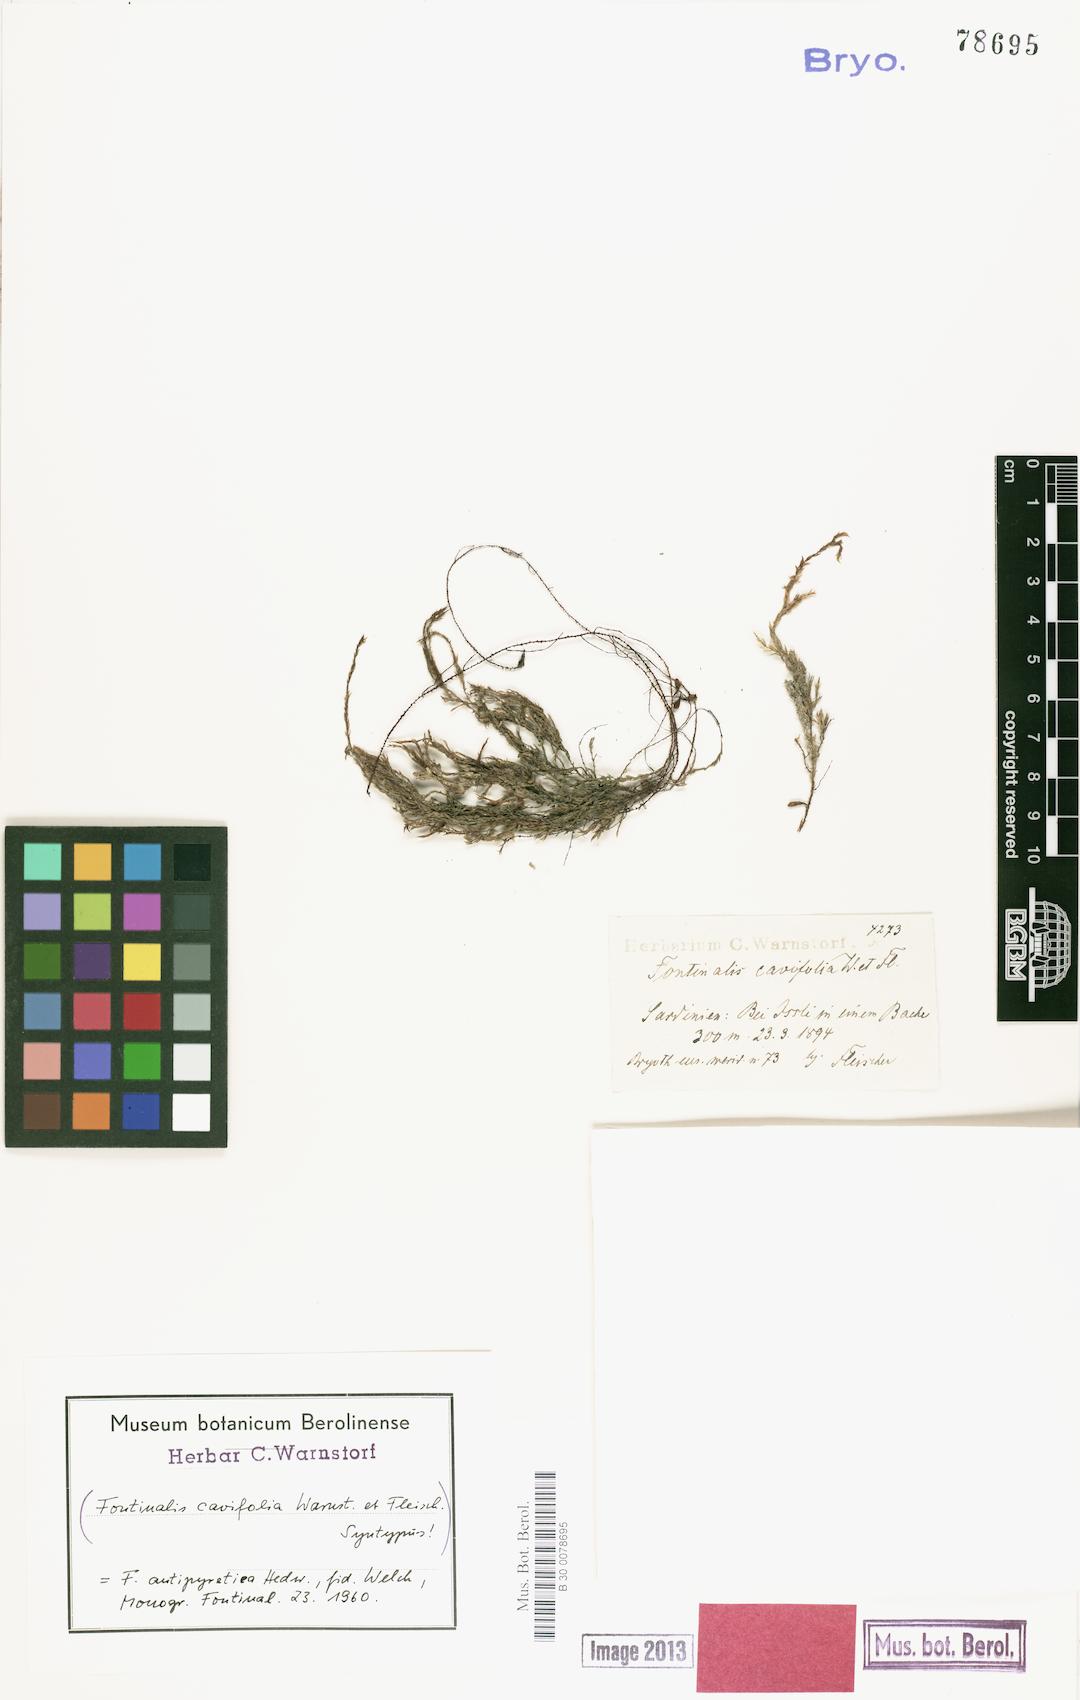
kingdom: Plantae
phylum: Bryophyta
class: Bryopsida
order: Hypnales
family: Fontinalaceae
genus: Fontinalis
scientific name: Fontinalis antipyretica
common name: Greater water-moss
